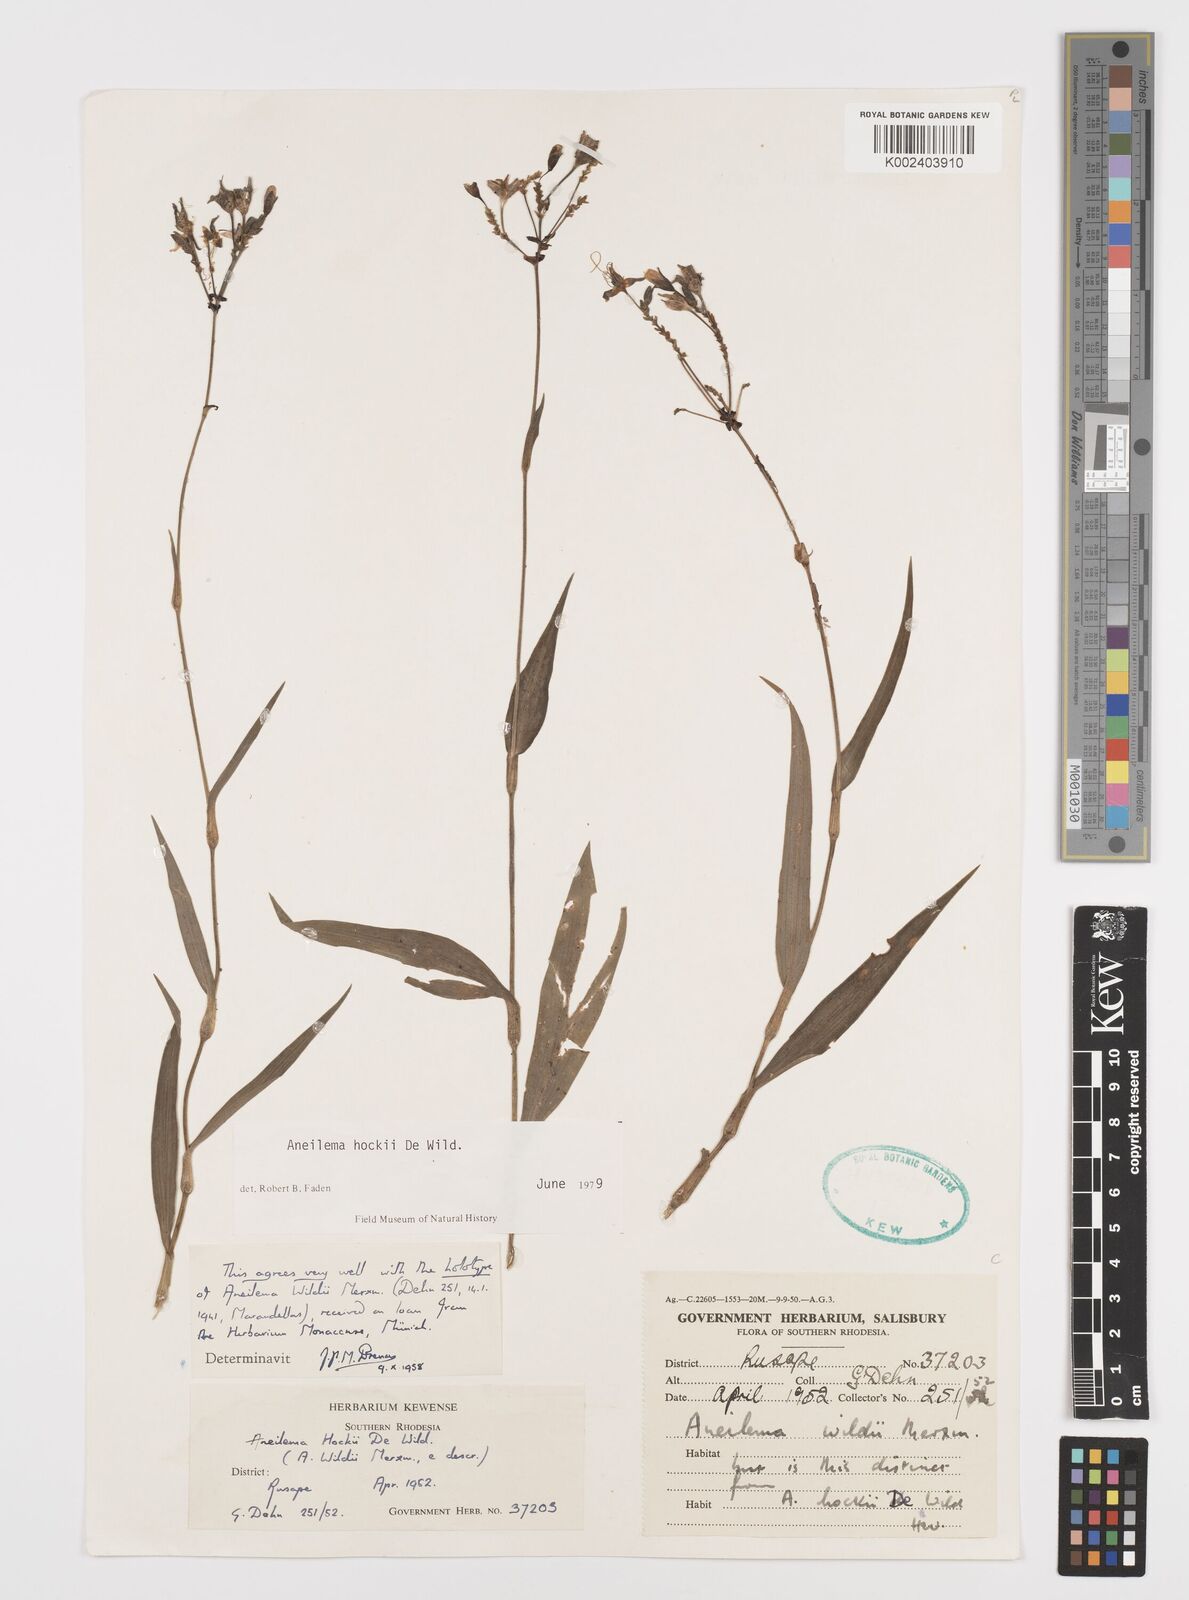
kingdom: Plantae
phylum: Tracheophyta
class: Liliopsida
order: Commelinales
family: Commelinaceae
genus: Aneilema
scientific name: Aneilema hockii
